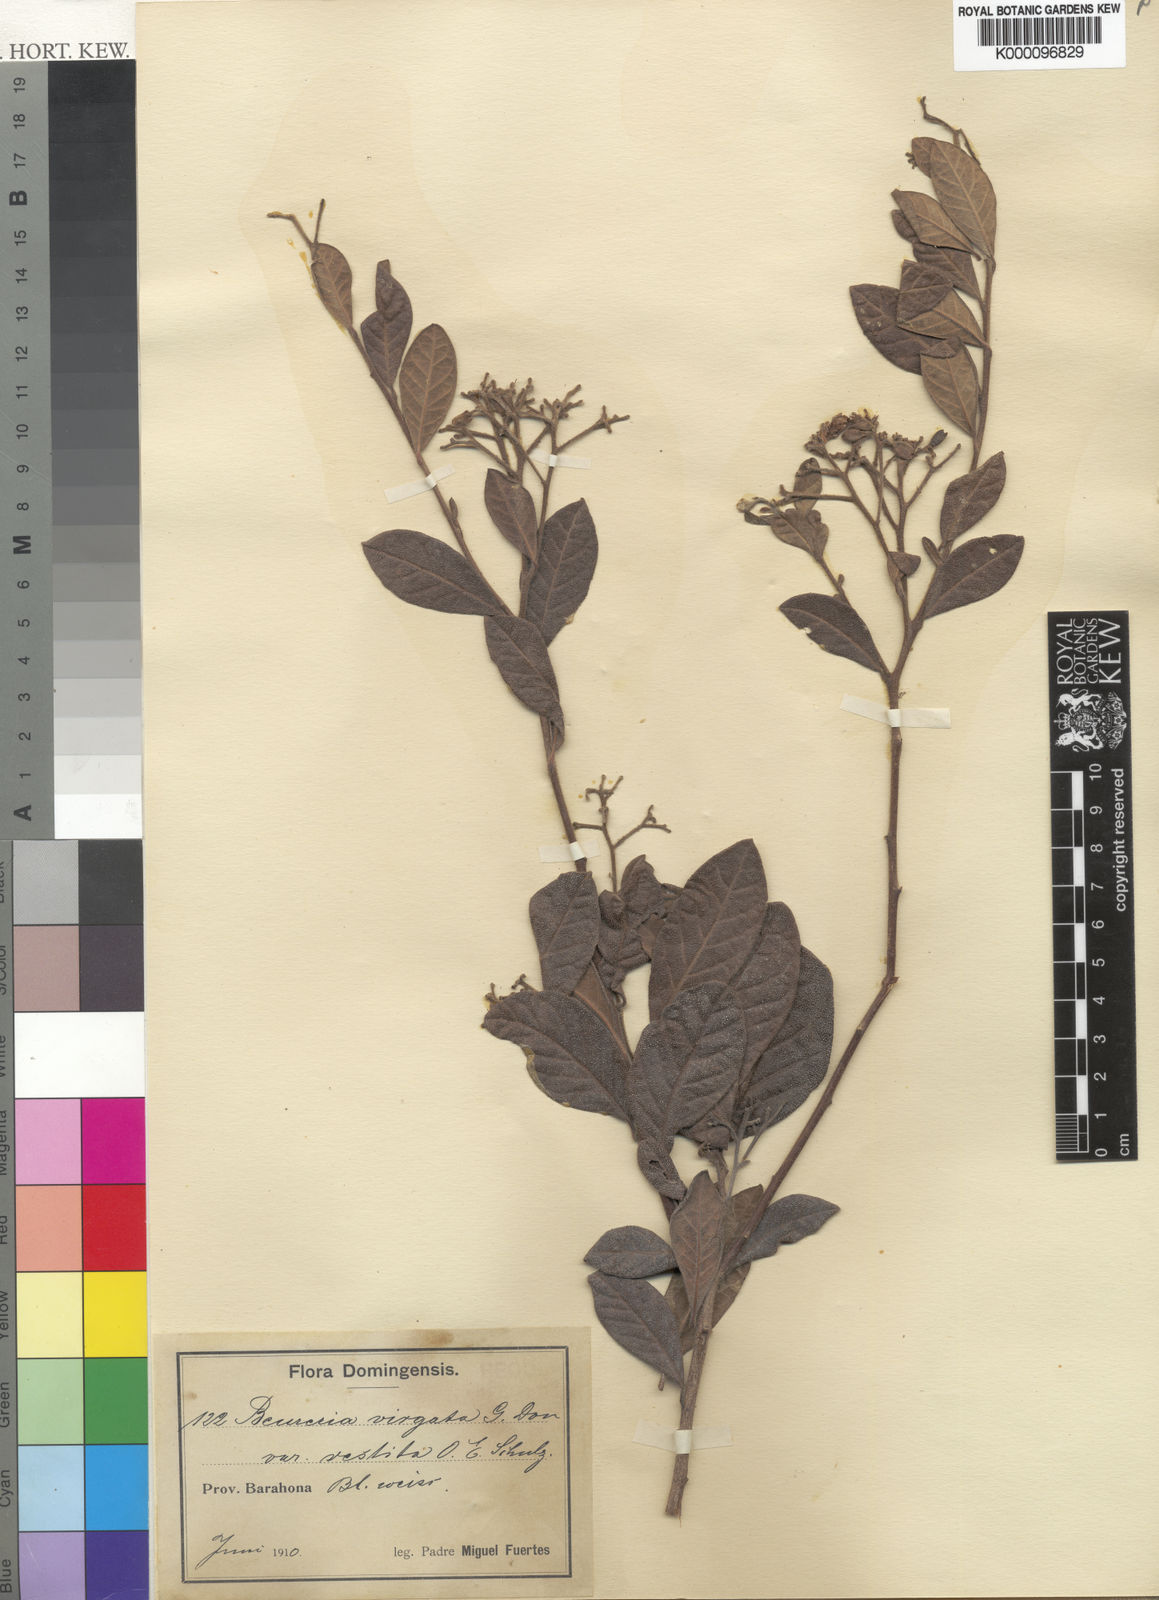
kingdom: Plantae
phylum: Tracheophyta
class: Magnoliopsida
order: Boraginales
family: Ehretiaceae
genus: Bourreria
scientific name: Bourreria virgata
